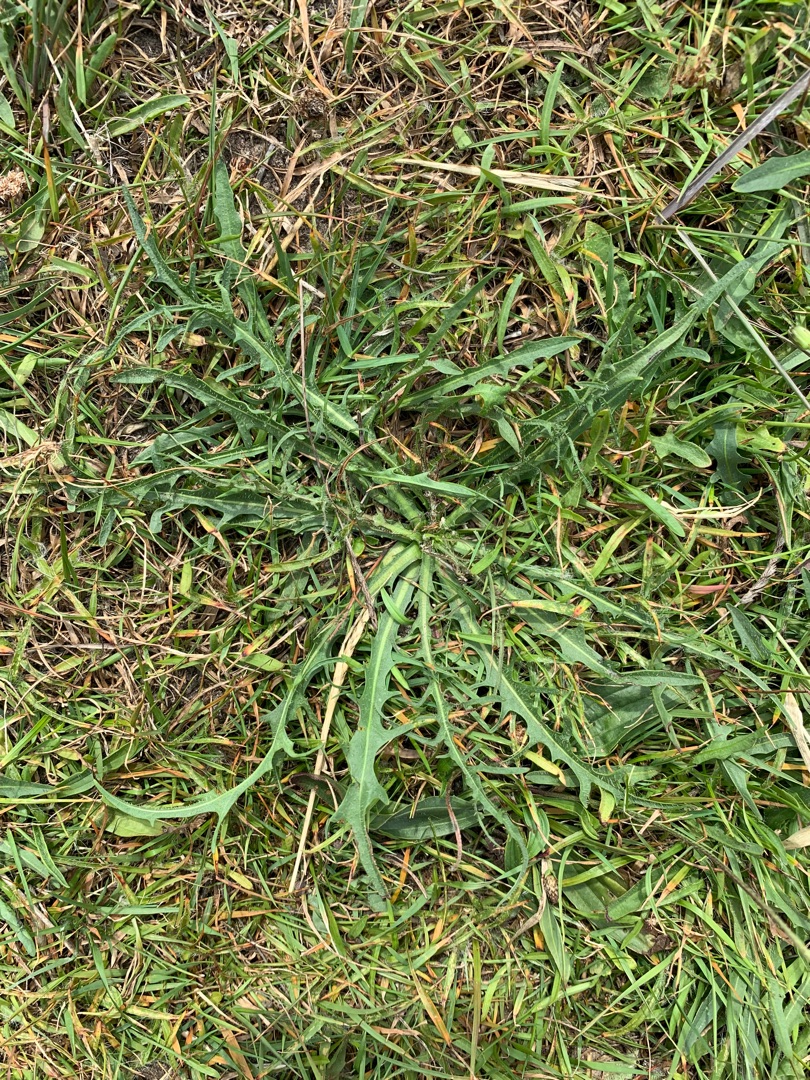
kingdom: Plantae
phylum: Tracheophyta
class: Magnoliopsida
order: Asterales
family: Asteraceae
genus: Scorzoneroides
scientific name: Scorzoneroides autumnalis
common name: Høst-borst
